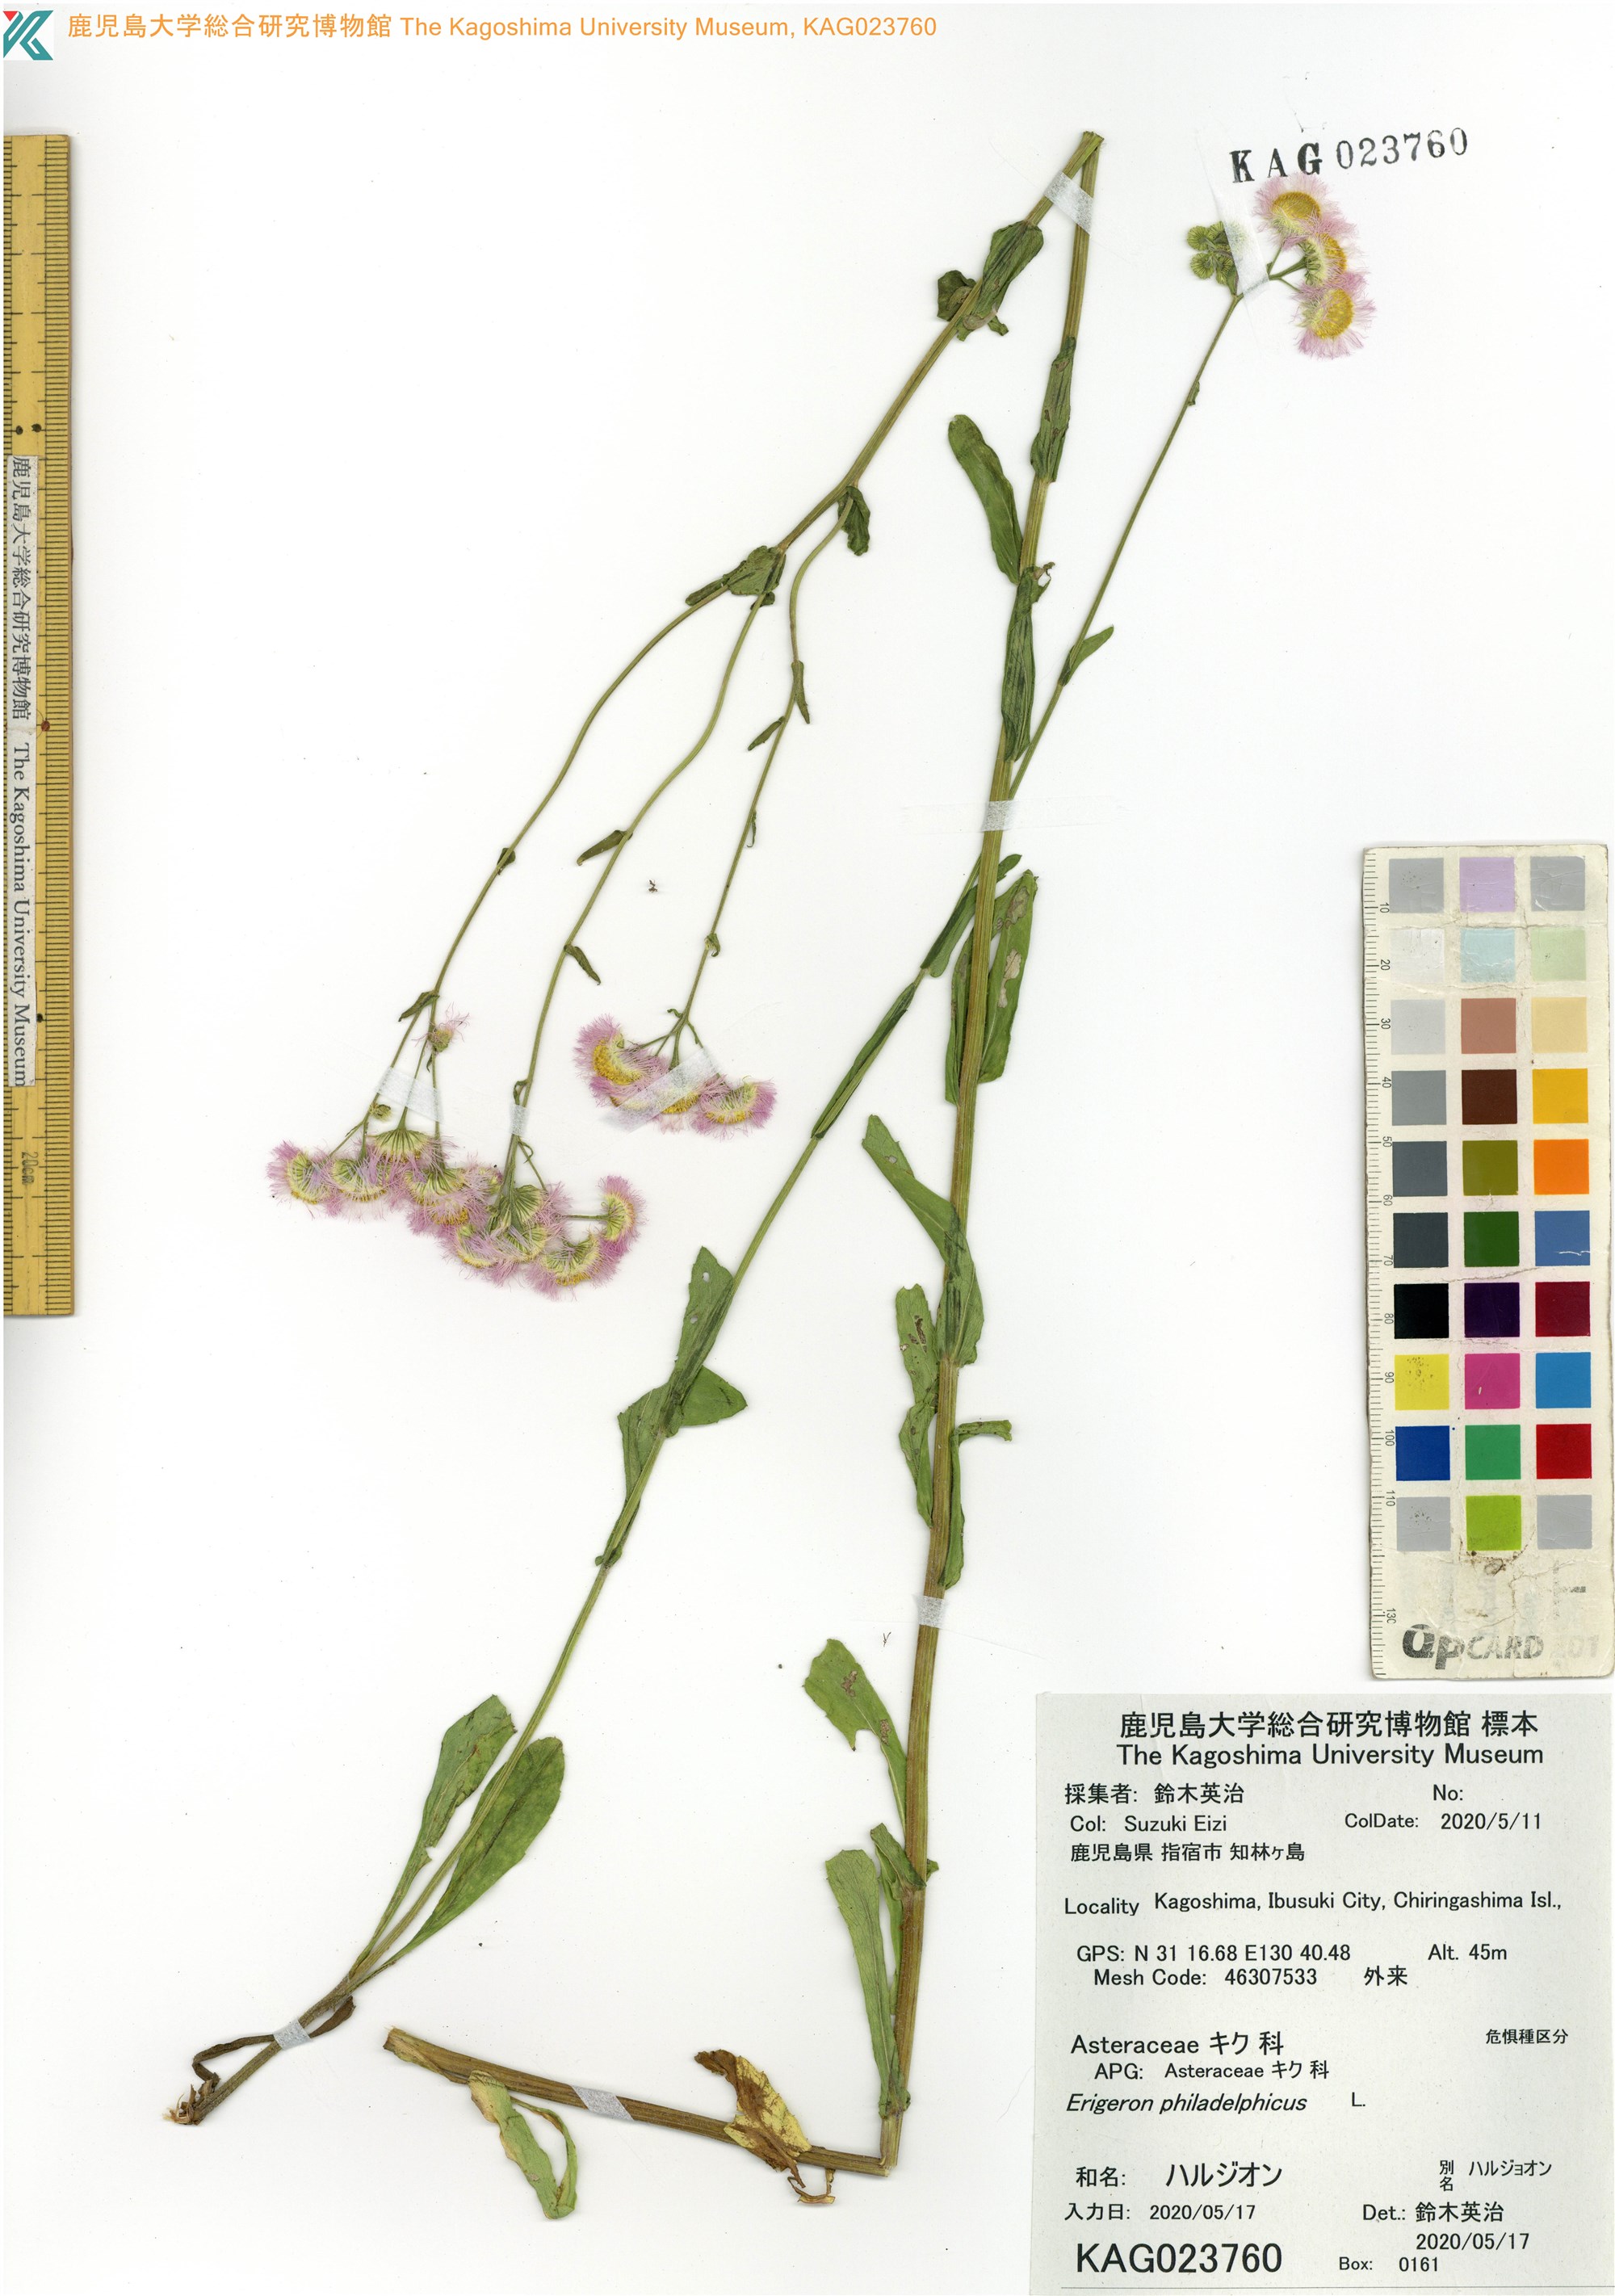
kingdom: Plantae
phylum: Tracheophyta
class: Magnoliopsida
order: Asterales
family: Asteraceae
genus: Erigeron
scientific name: Erigeron philadelphicus
